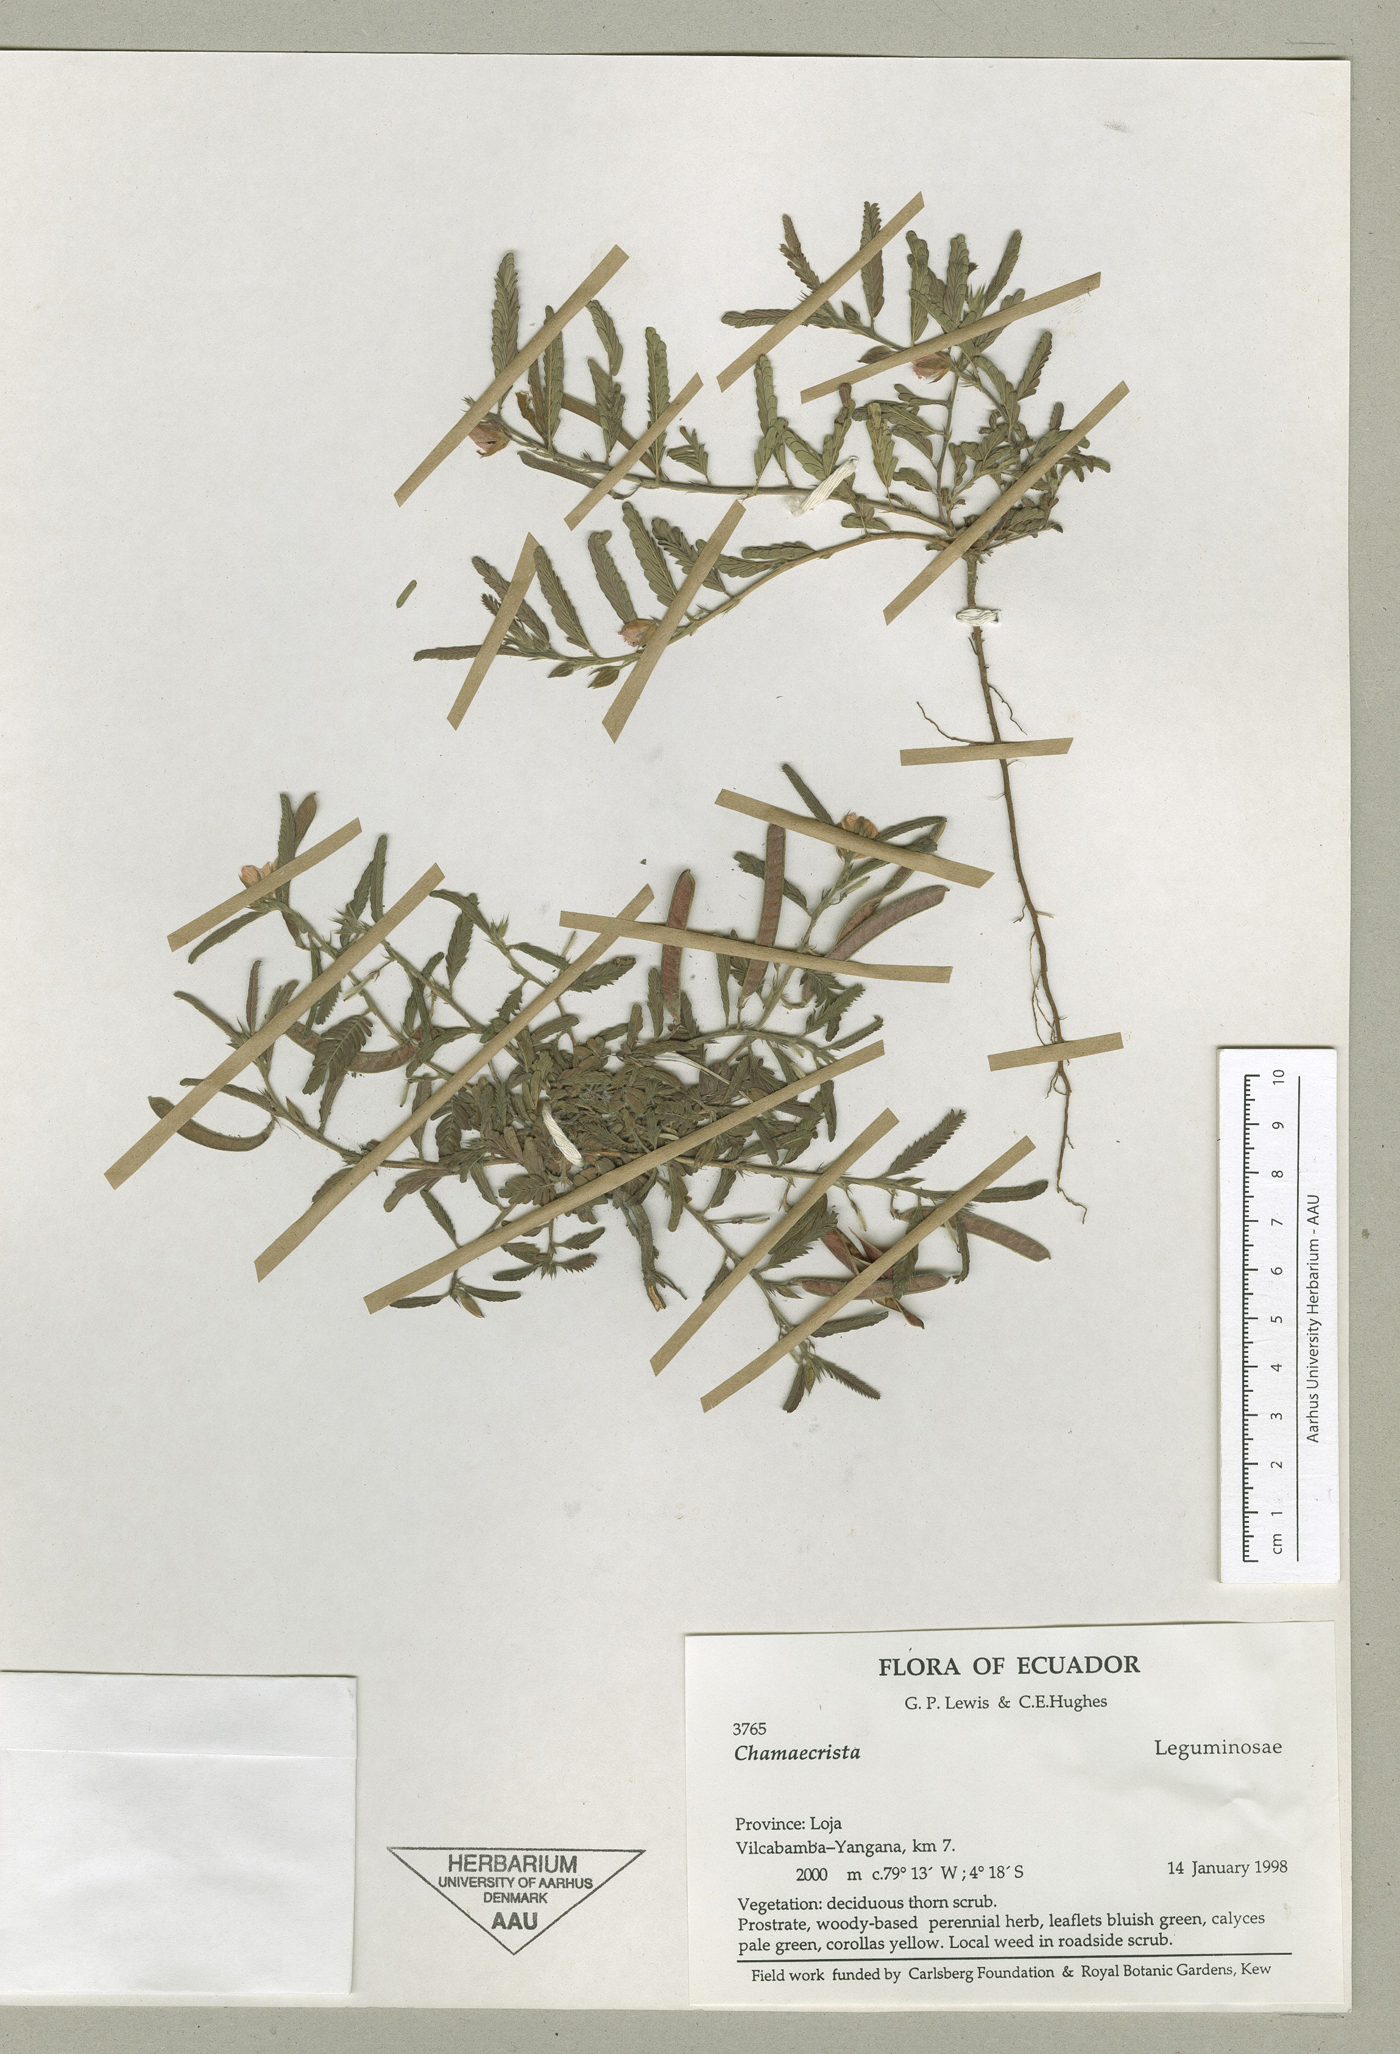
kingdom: Plantae
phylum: Tracheophyta
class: Magnoliopsida
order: Fabales
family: Fabaceae
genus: Chamaecrista
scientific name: Chamaecrista nictitans
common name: Sensitive cassia
